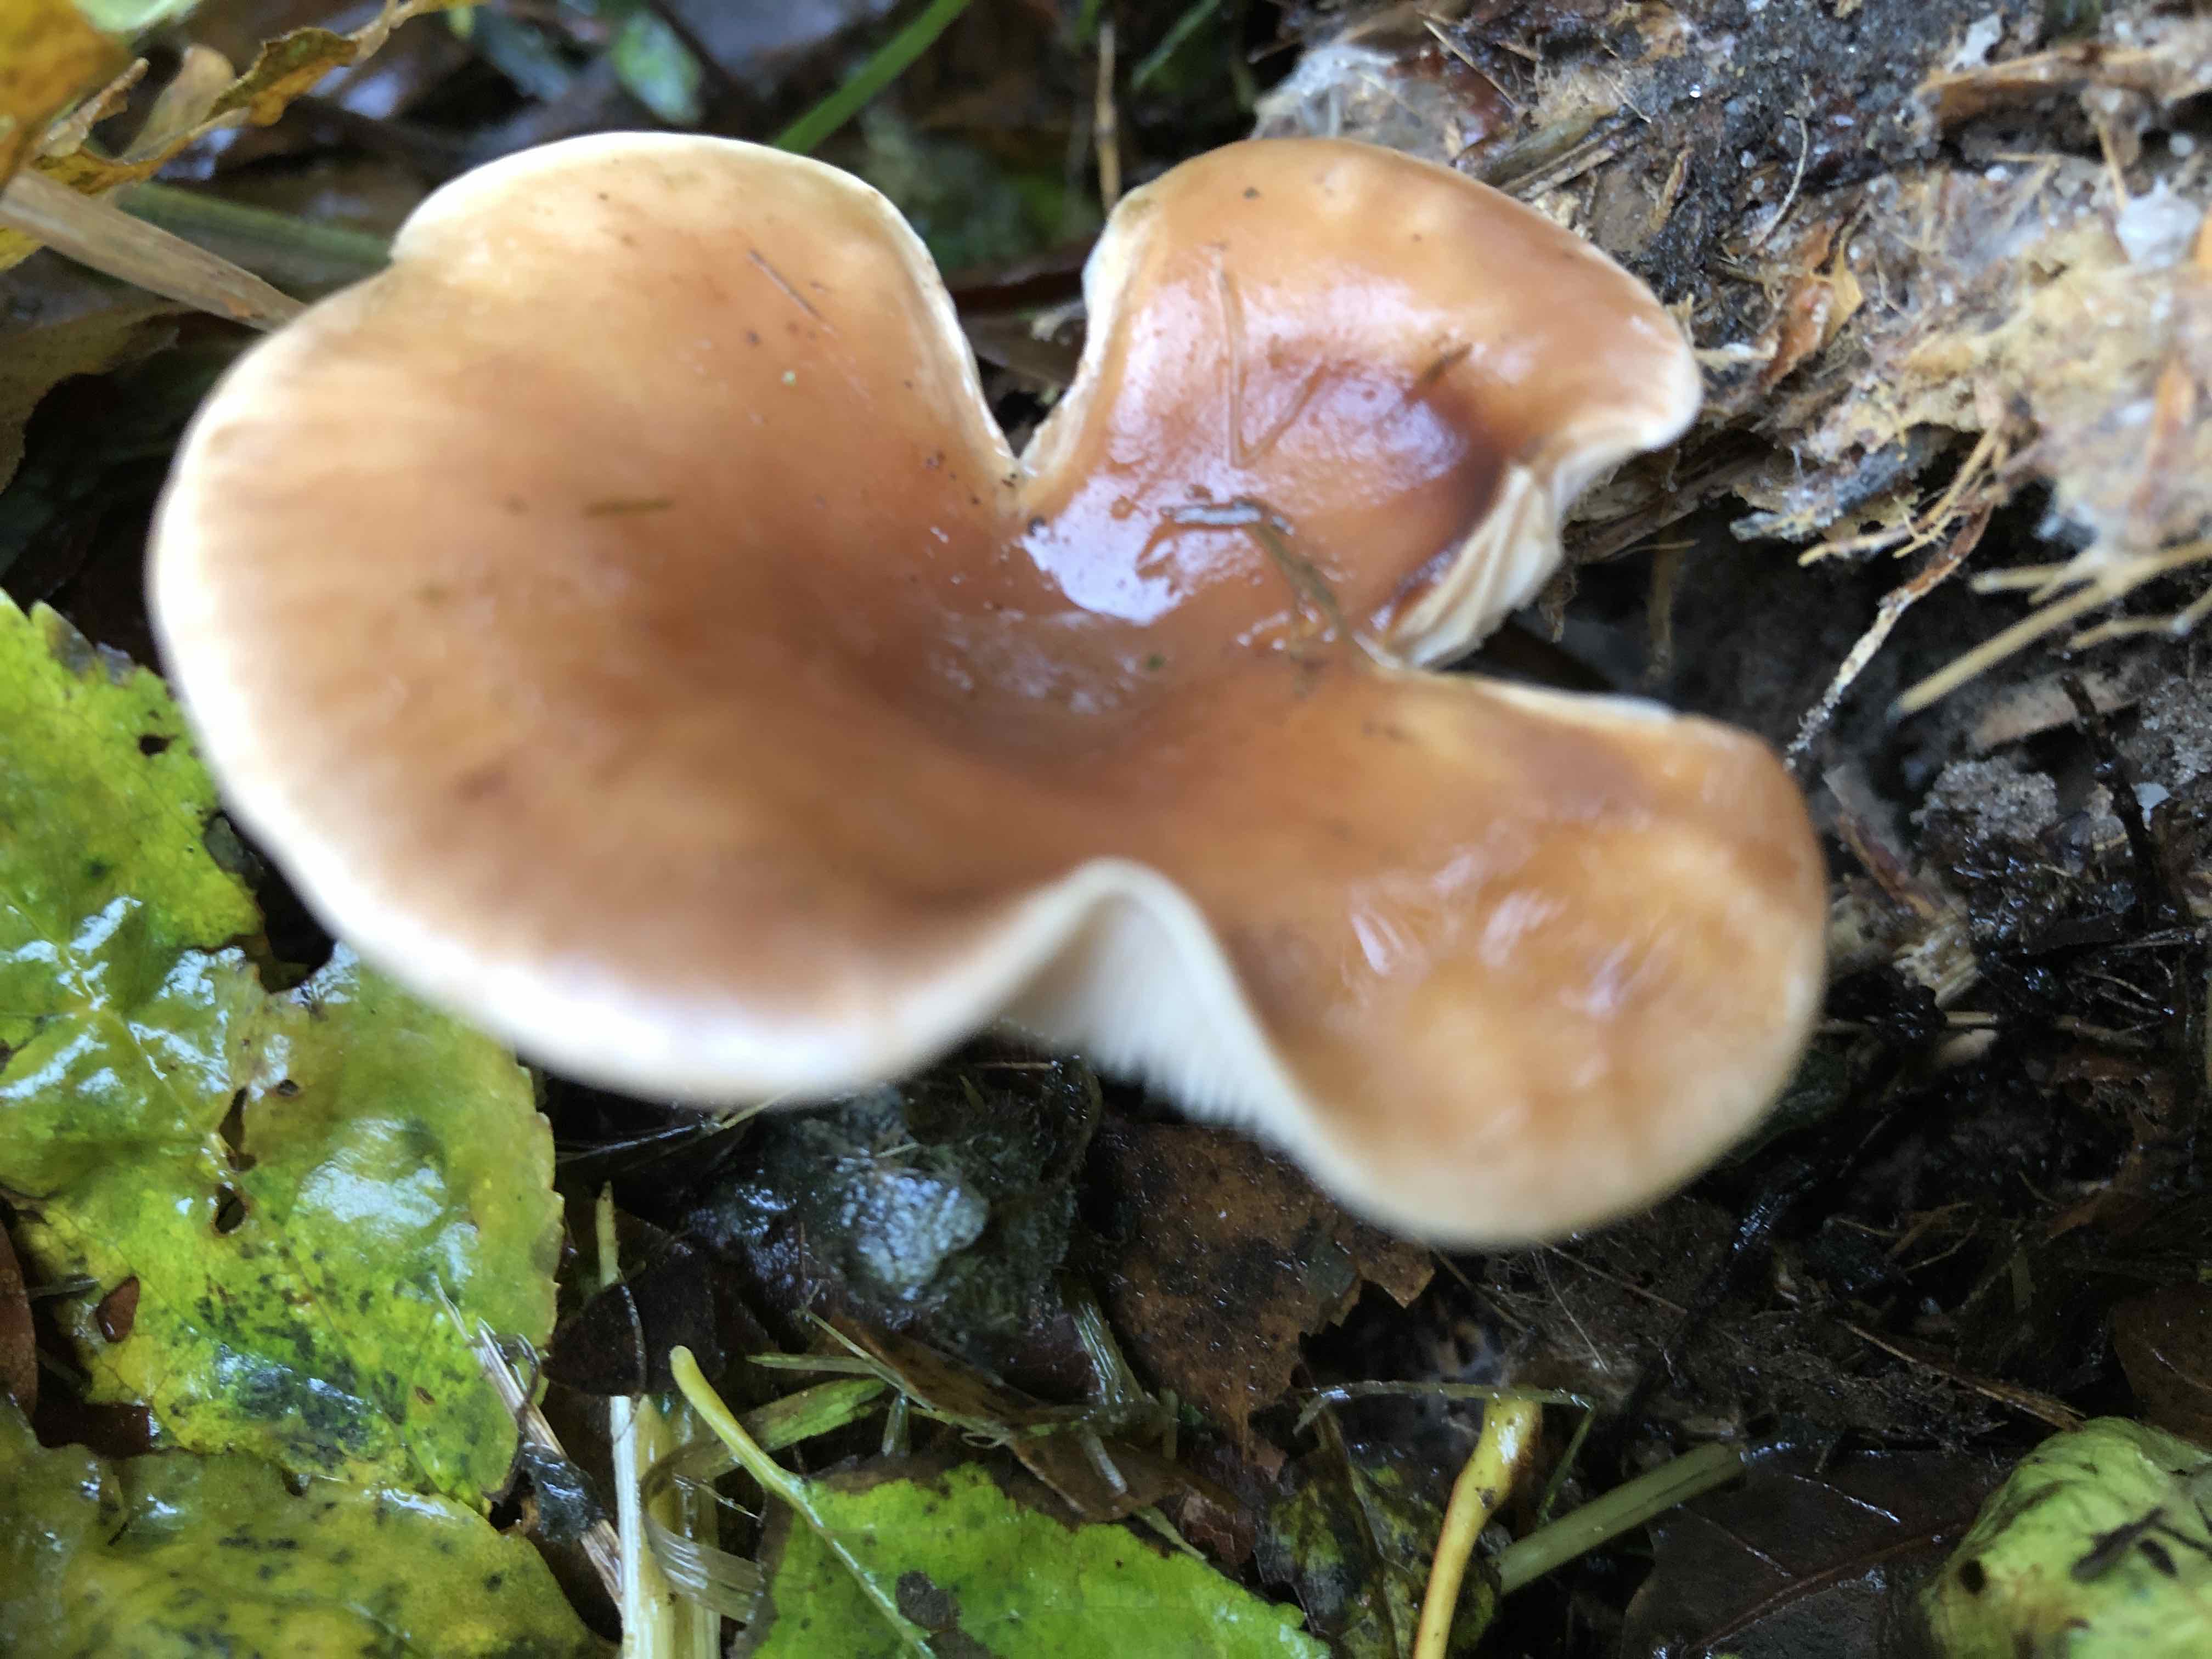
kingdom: Fungi
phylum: Basidiomycota
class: Agaricomycetes
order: Agaricales
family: Tricholomataceae
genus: Paralepista
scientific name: Paralepista flaccida
